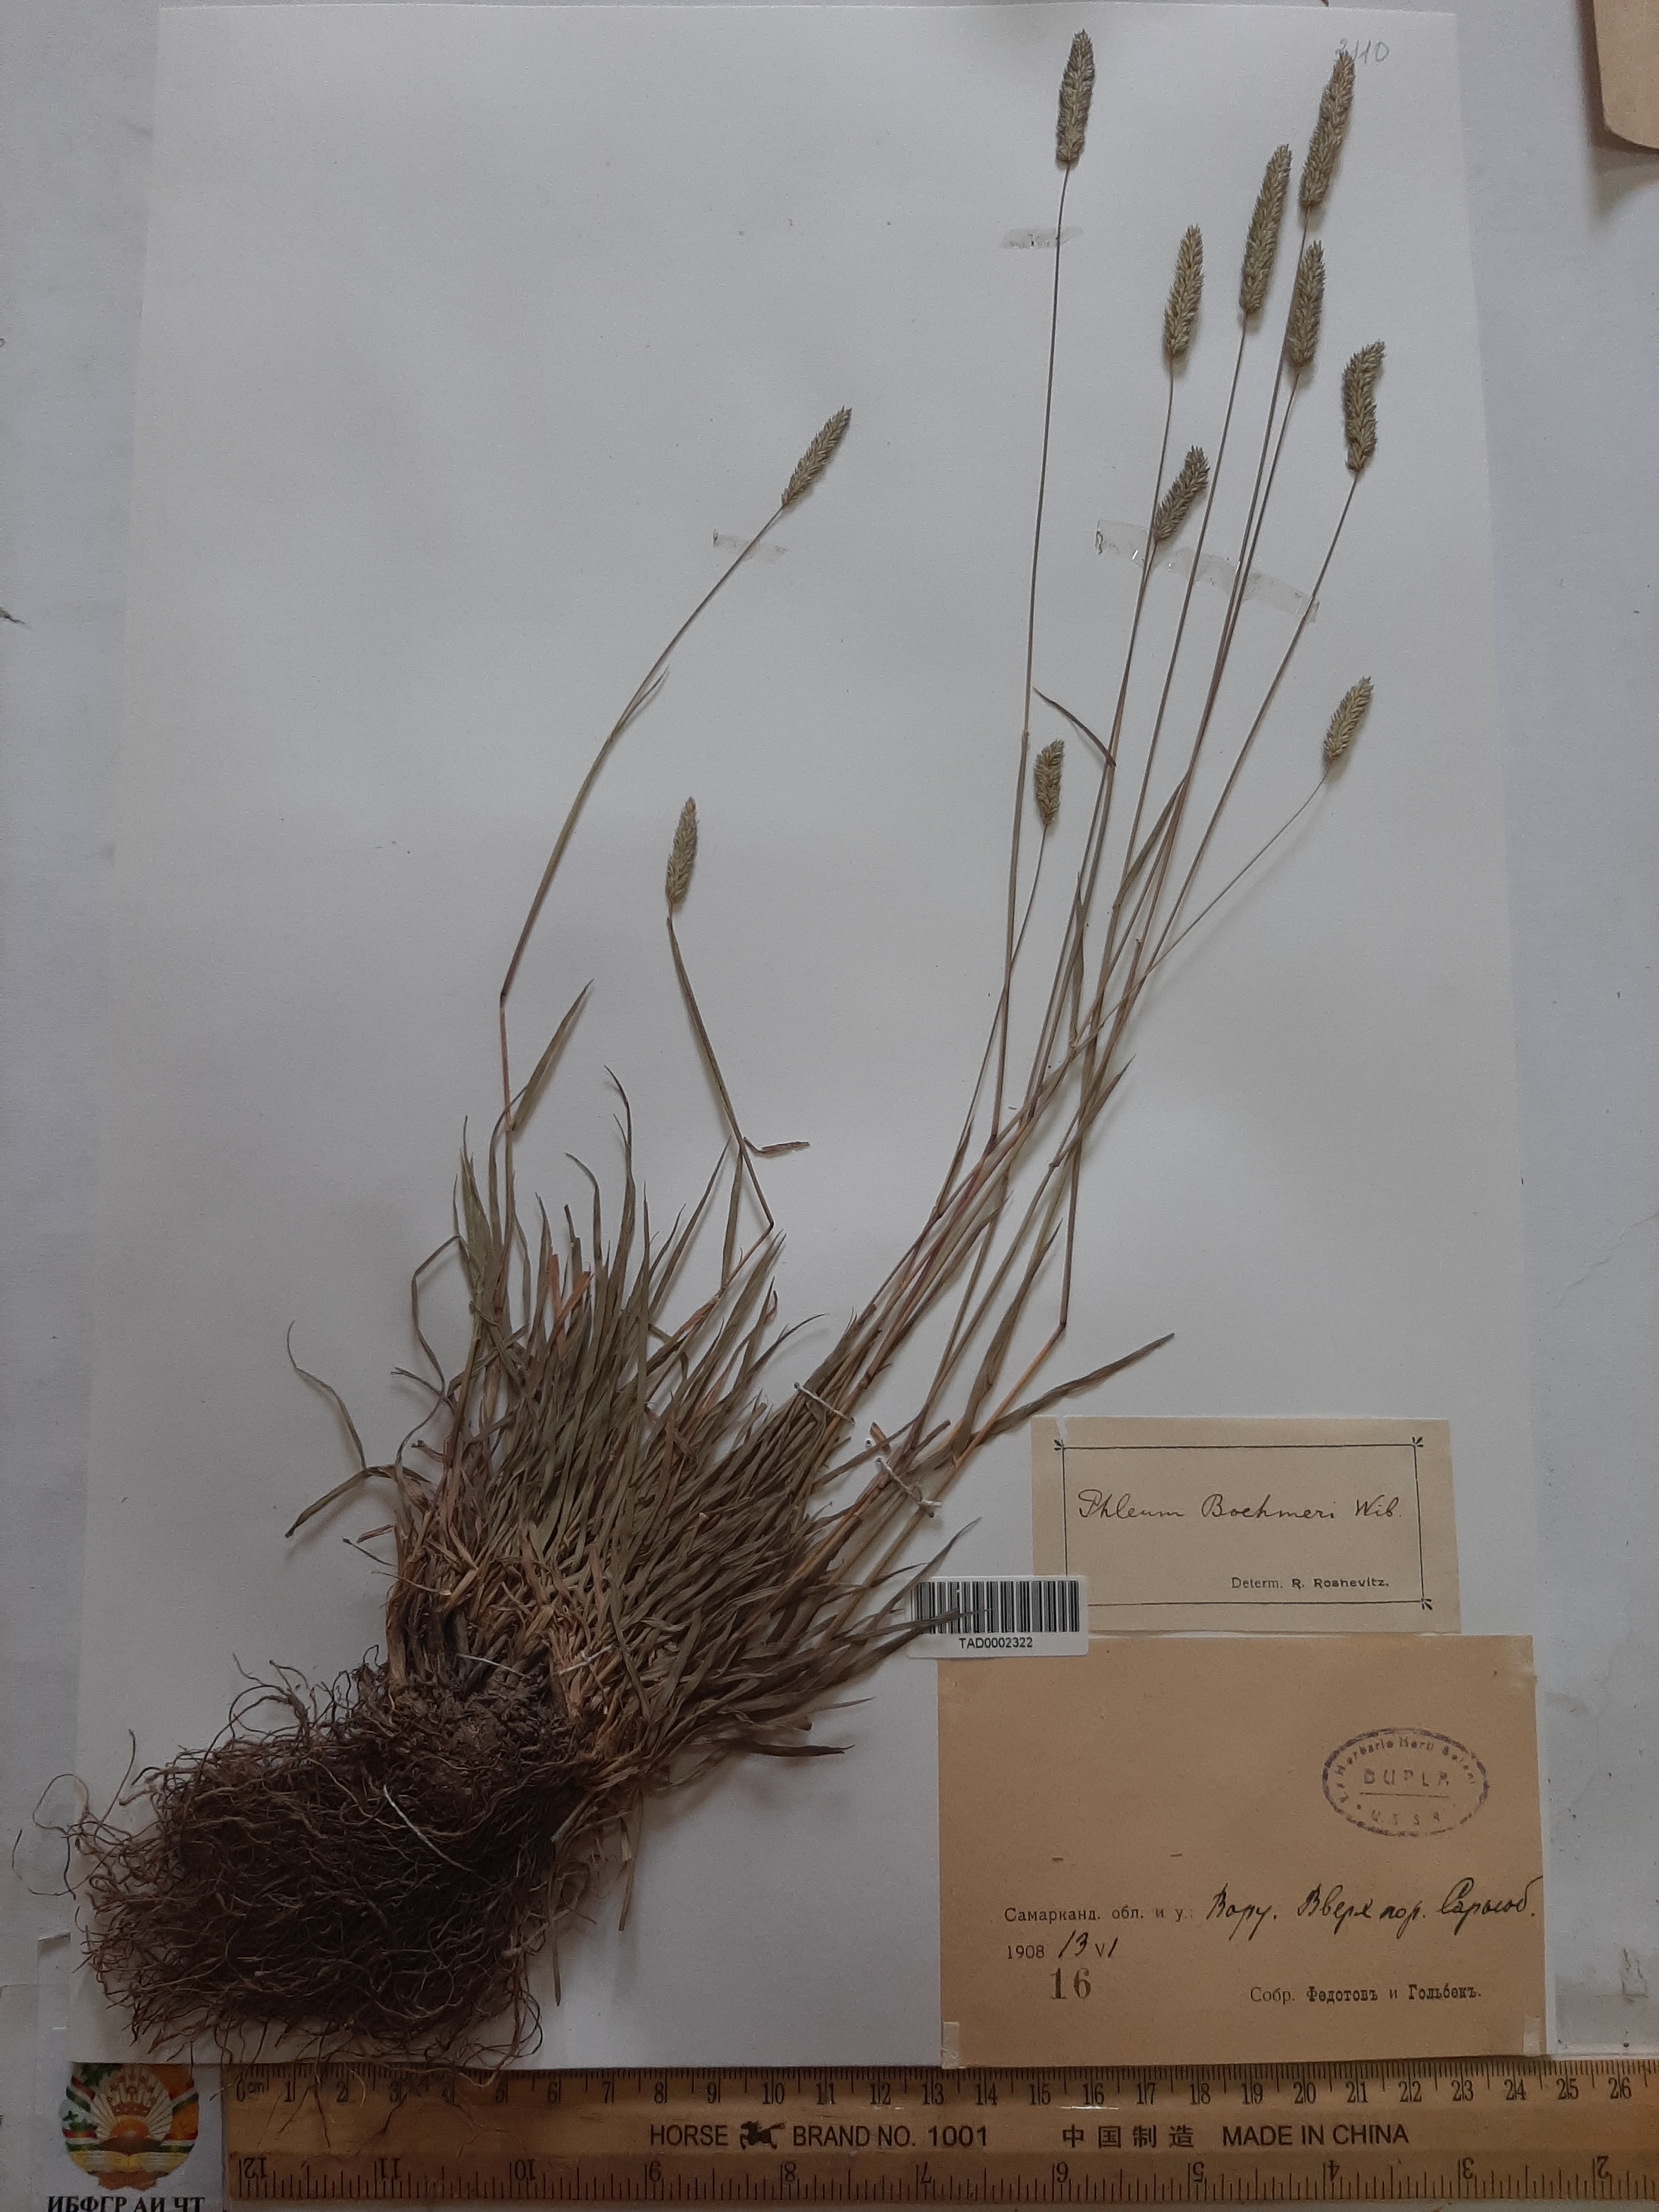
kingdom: Plantae
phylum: Tracheophyta
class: Liliopsida
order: Poales
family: Poaceae
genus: Phleum
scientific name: Phleum phleoides
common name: Purple-stem cat's-tail
